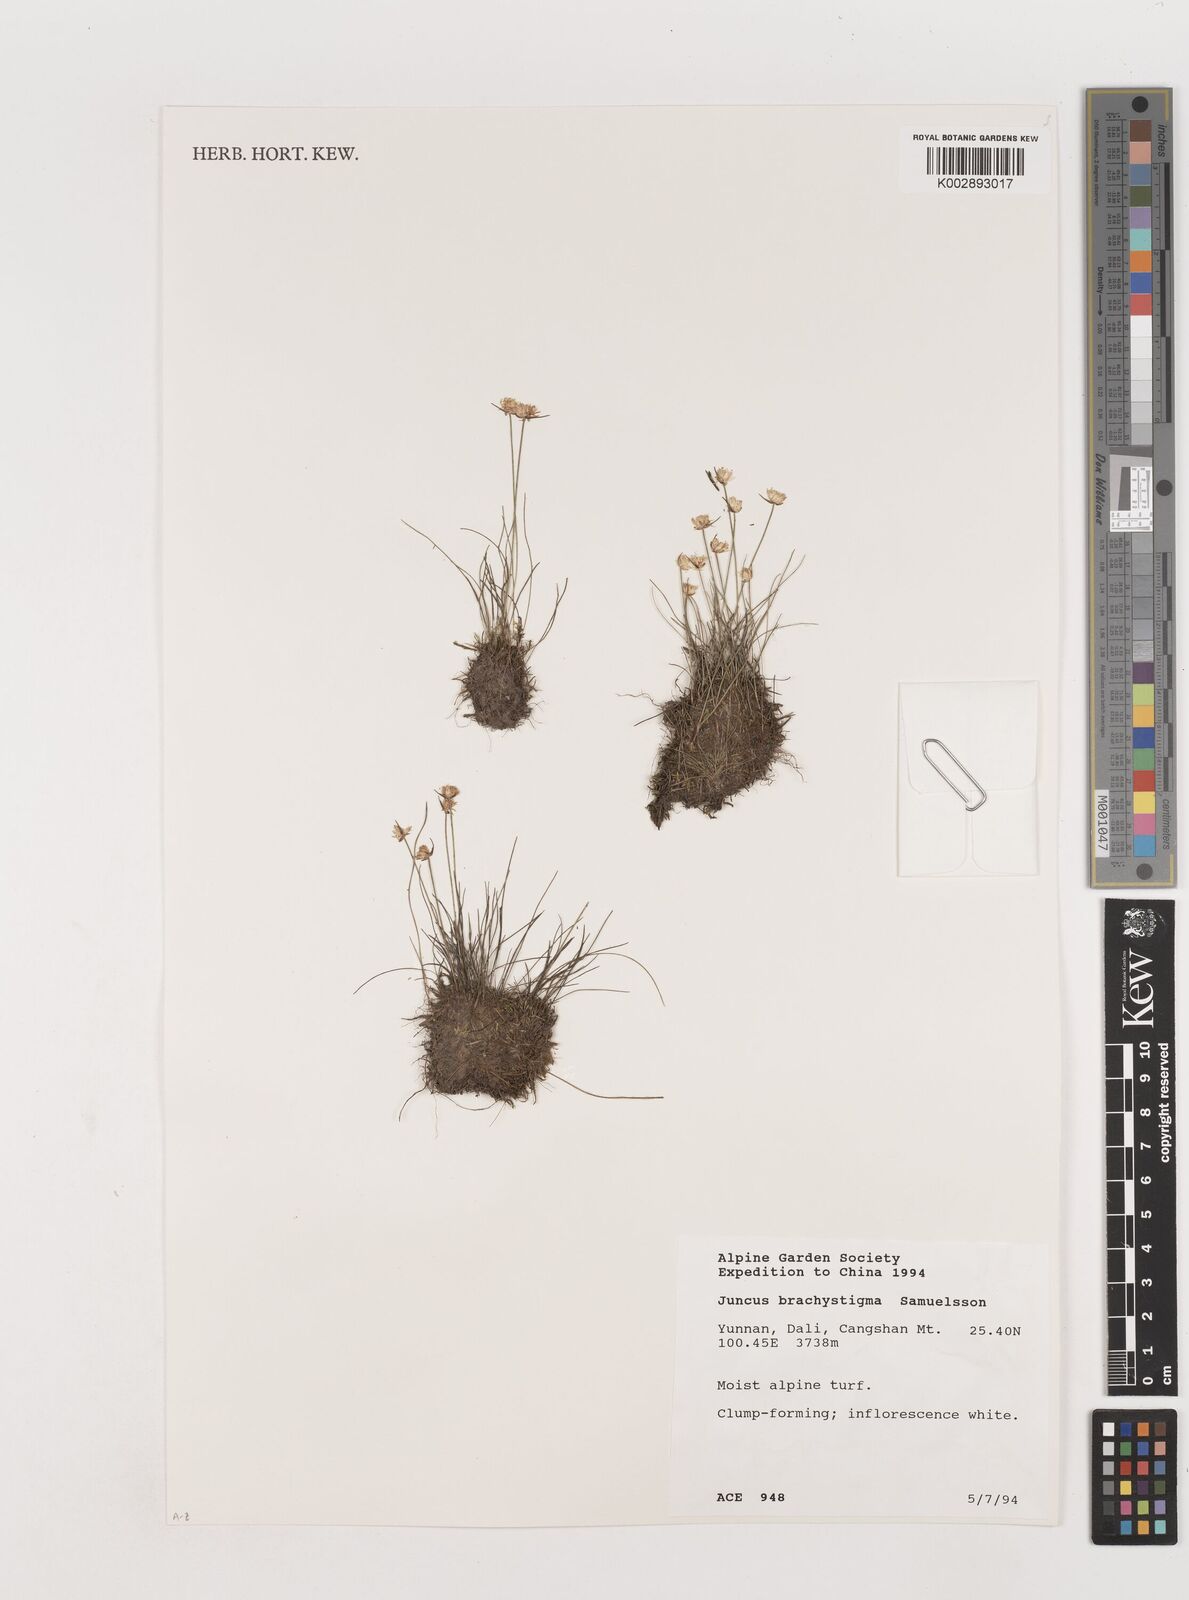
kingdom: Plantae
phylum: Tracheophyta
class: Liliopsida
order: Poales
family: Juncaceae
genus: Juncus
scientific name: Juncus brachystigma
